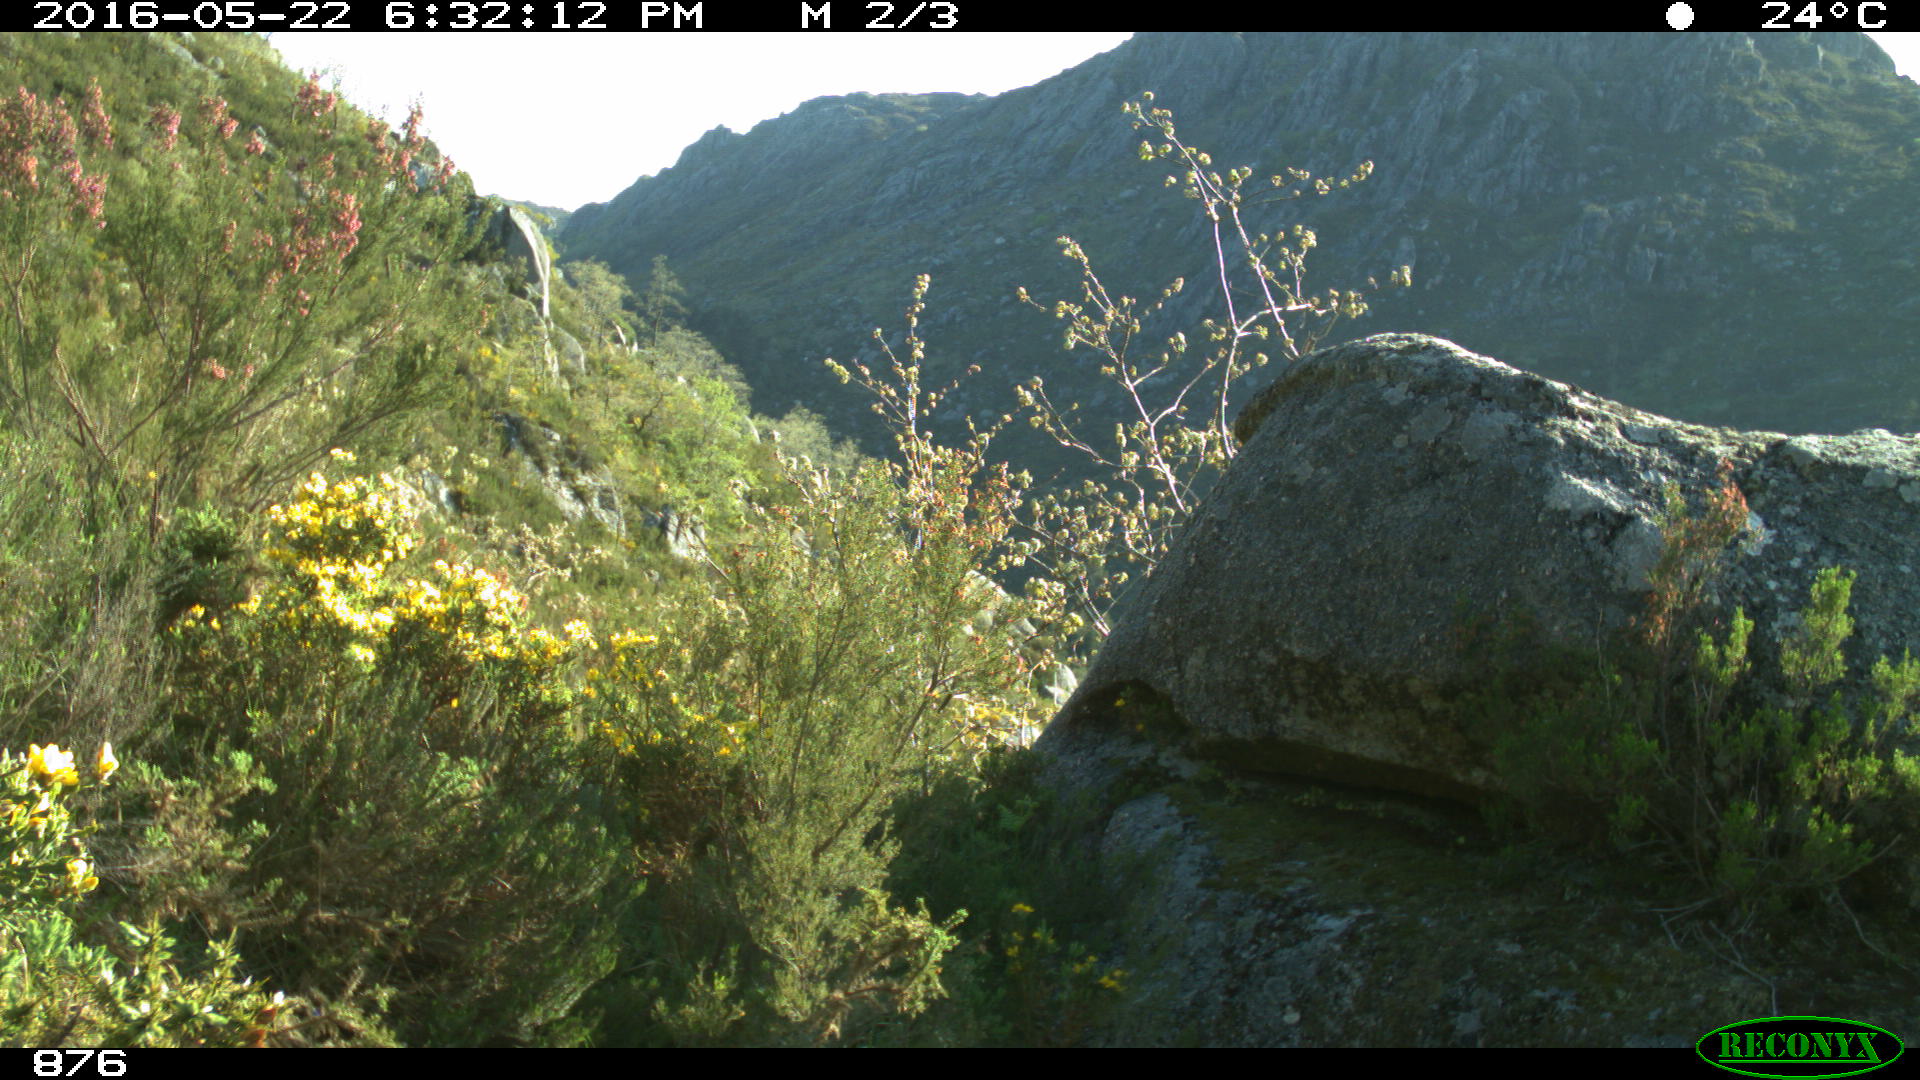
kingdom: Animalia
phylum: Chordata
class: Mammalia
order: Artiodactyla
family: Cervidae
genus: Capreolus
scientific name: Capreolus capreolus
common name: Western roe deer
